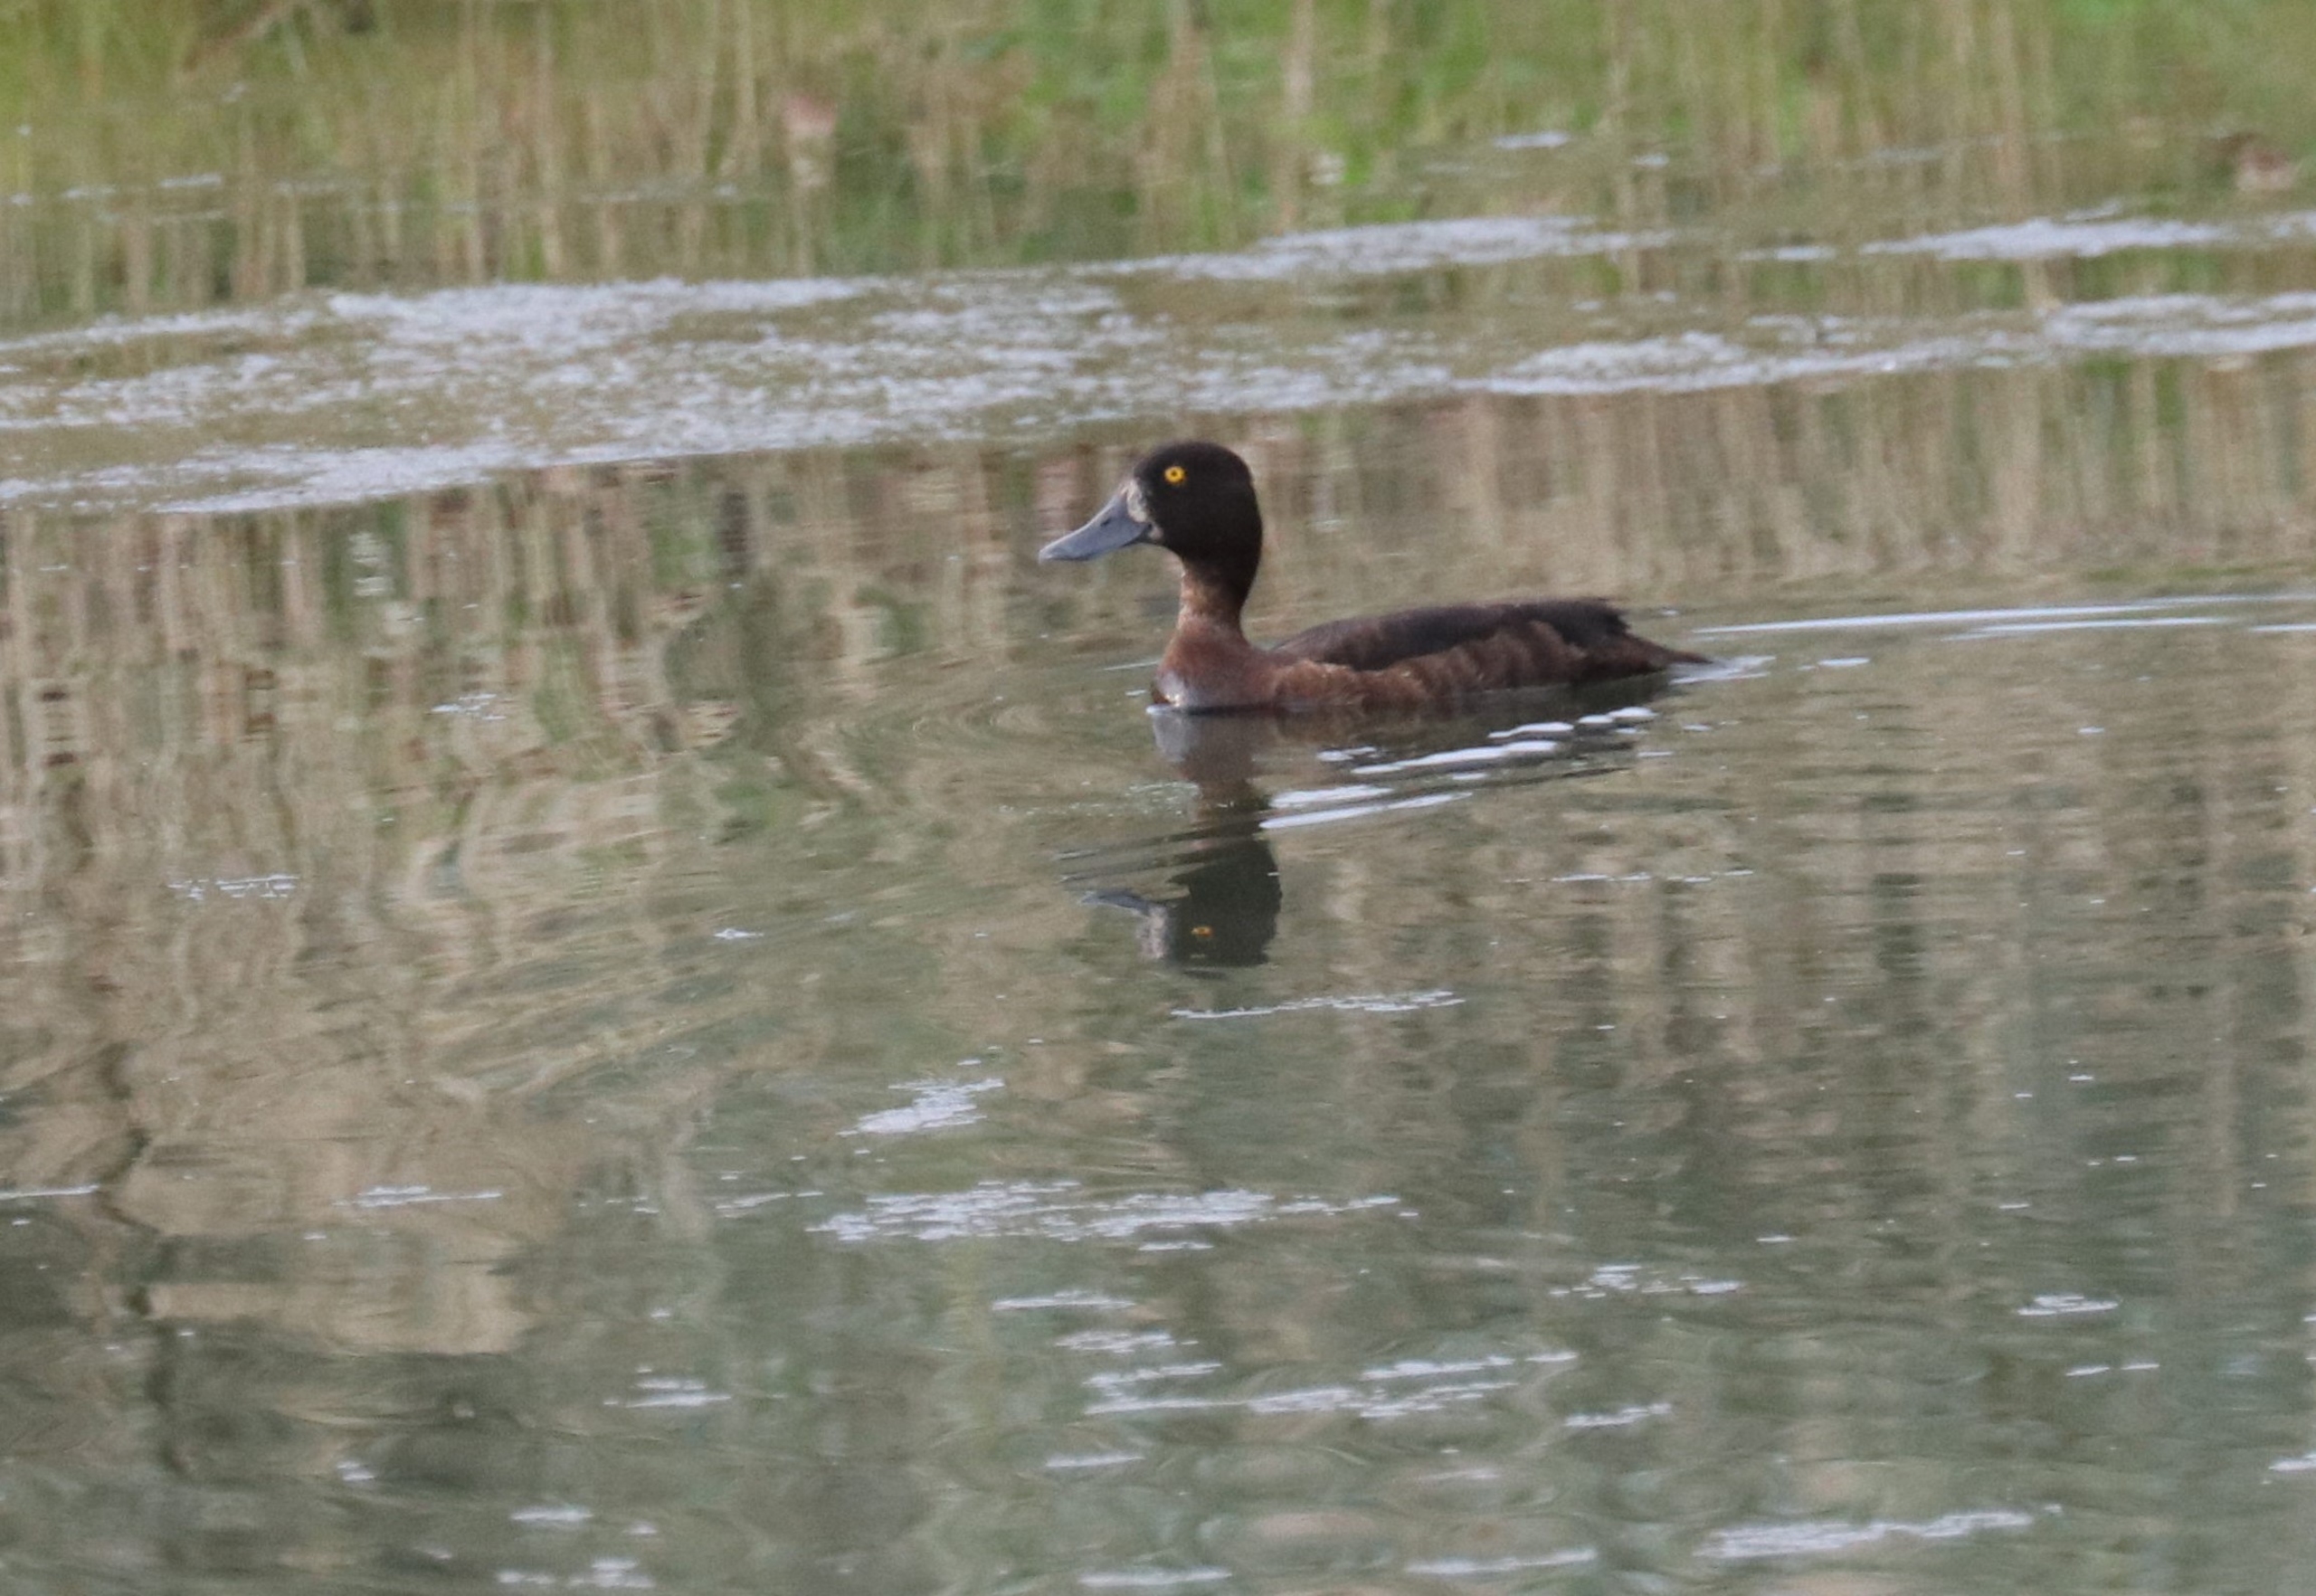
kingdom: Animalia
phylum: Chordata
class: Aves
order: Anseriformes
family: Anatidae
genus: Aythya
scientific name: Aythya fuligula
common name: Troldand
